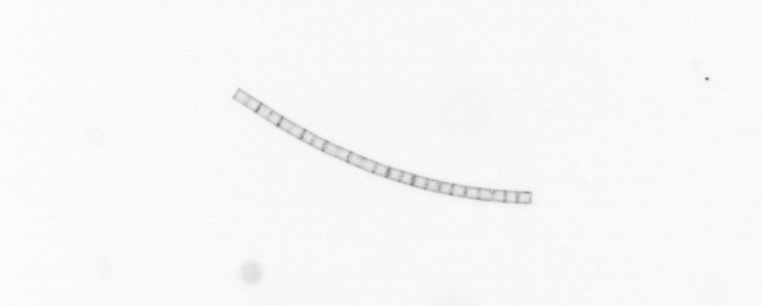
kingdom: Chromista
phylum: Ochrophyta
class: Bacillariophyceae
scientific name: Bacillariophyceae
